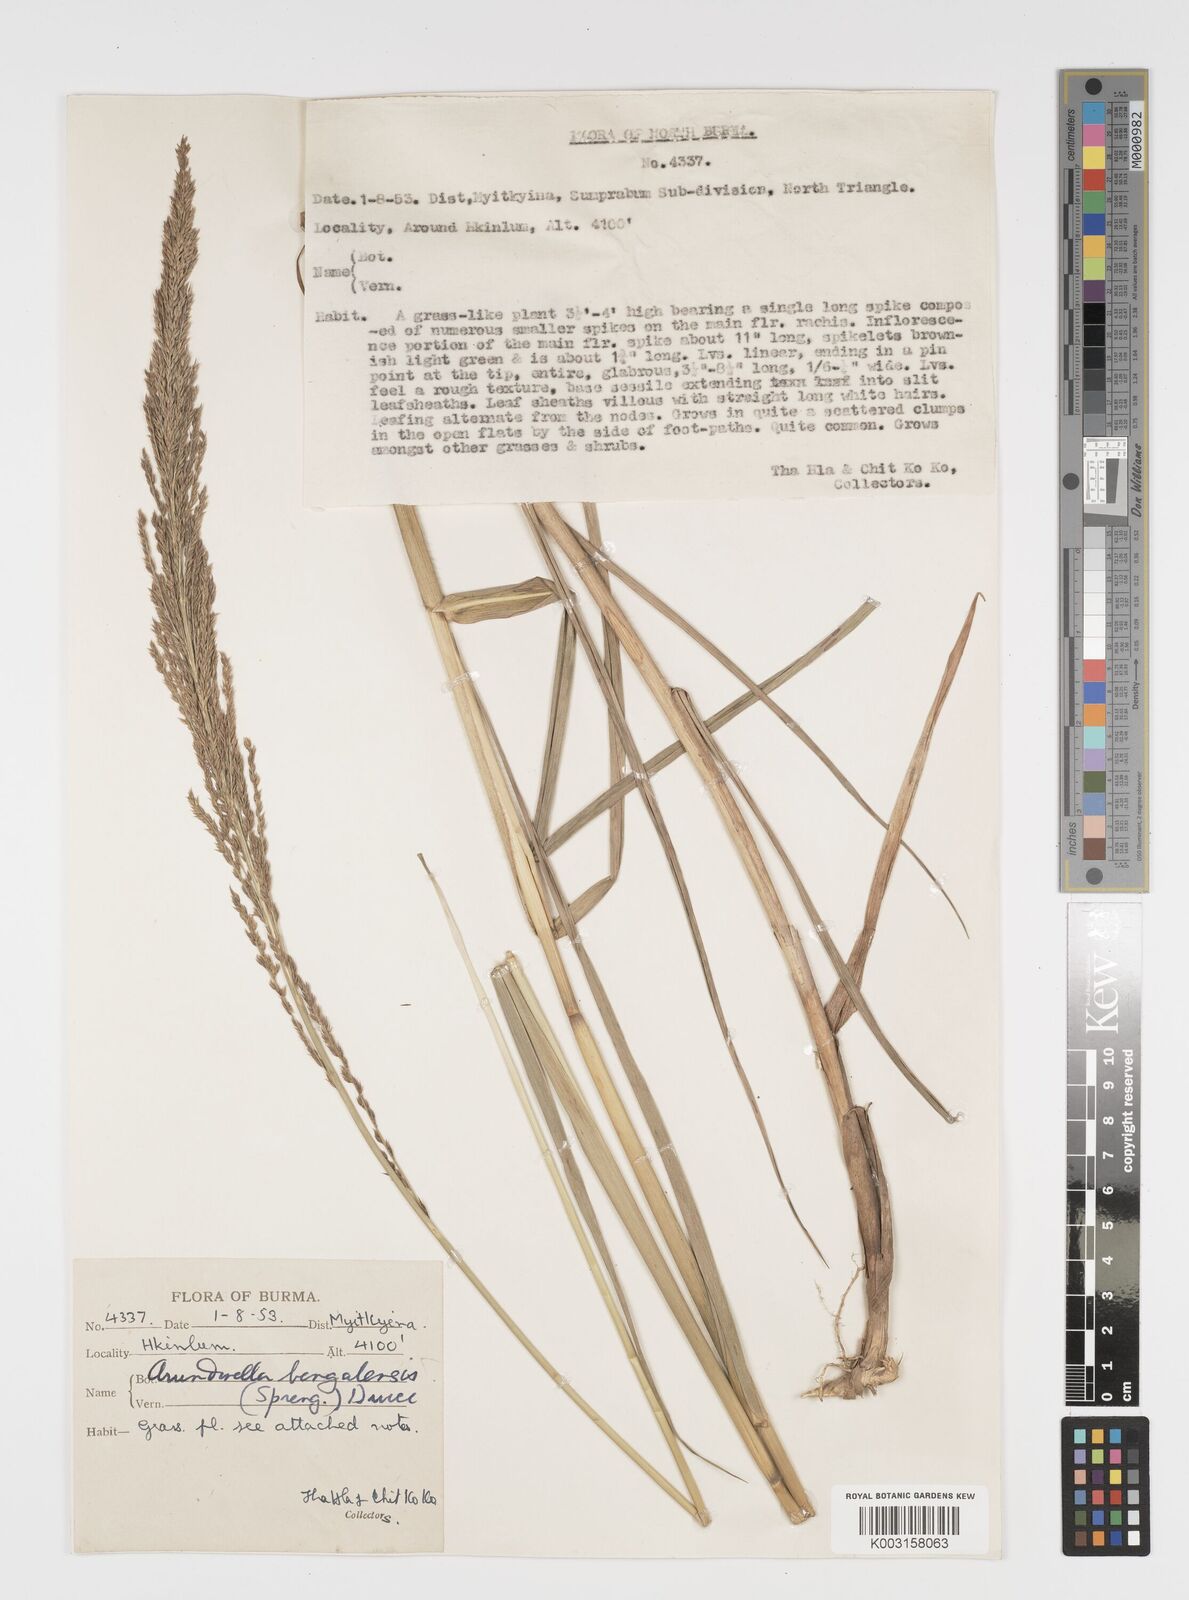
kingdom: Plantae
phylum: Tracheophyta
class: Liliopsida
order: Poales
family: Poaceae
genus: Arundinella
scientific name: Arundinella bengalensis
